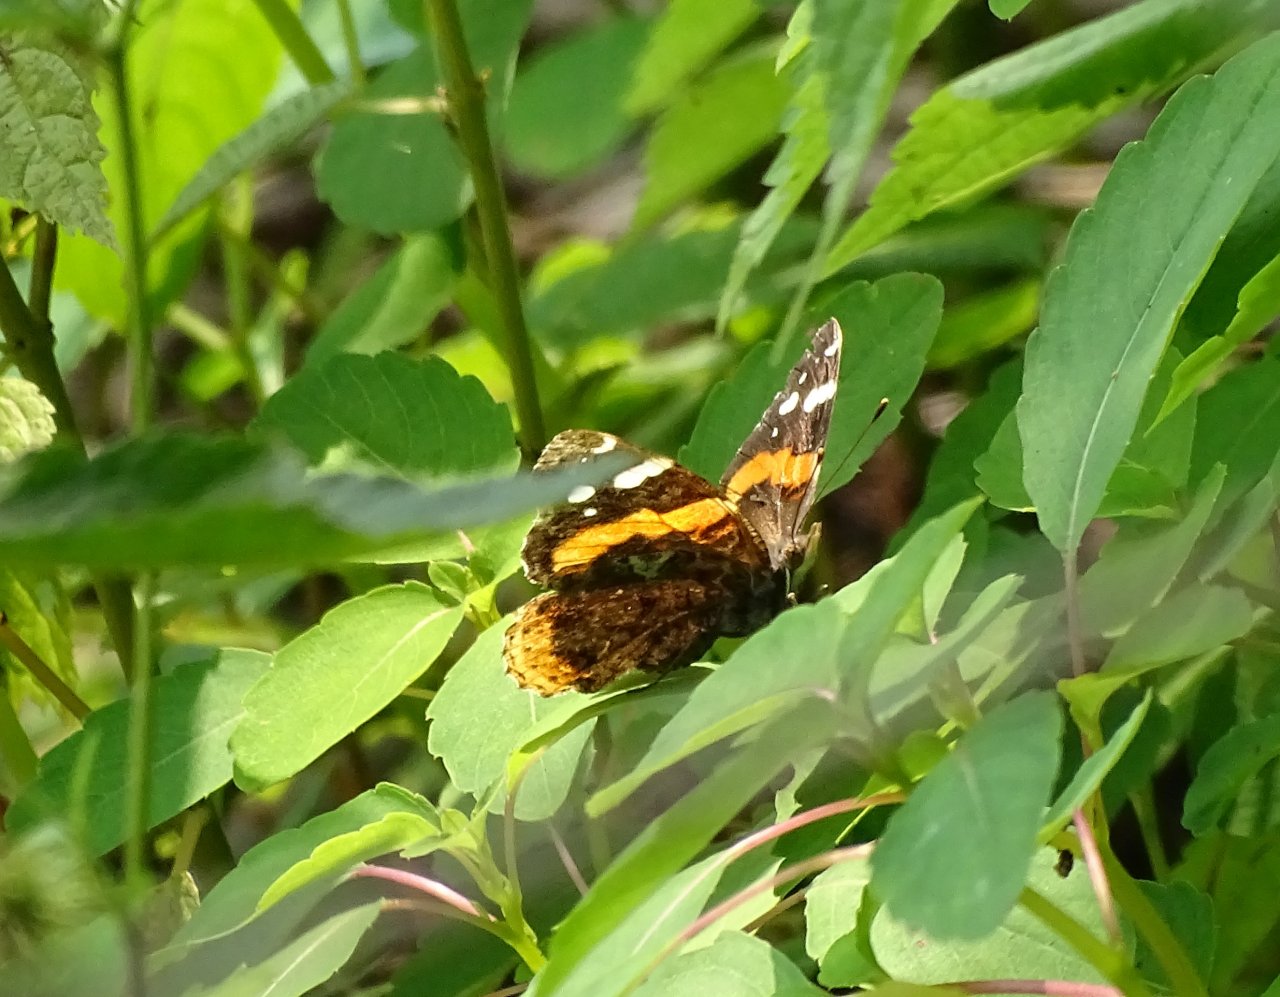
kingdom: Animalia
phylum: Arthropoda
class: Insecta
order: Lepidoptera
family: Nymphalidae
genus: Vanessa
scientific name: Vanessa atalanta
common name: Red Admiral
